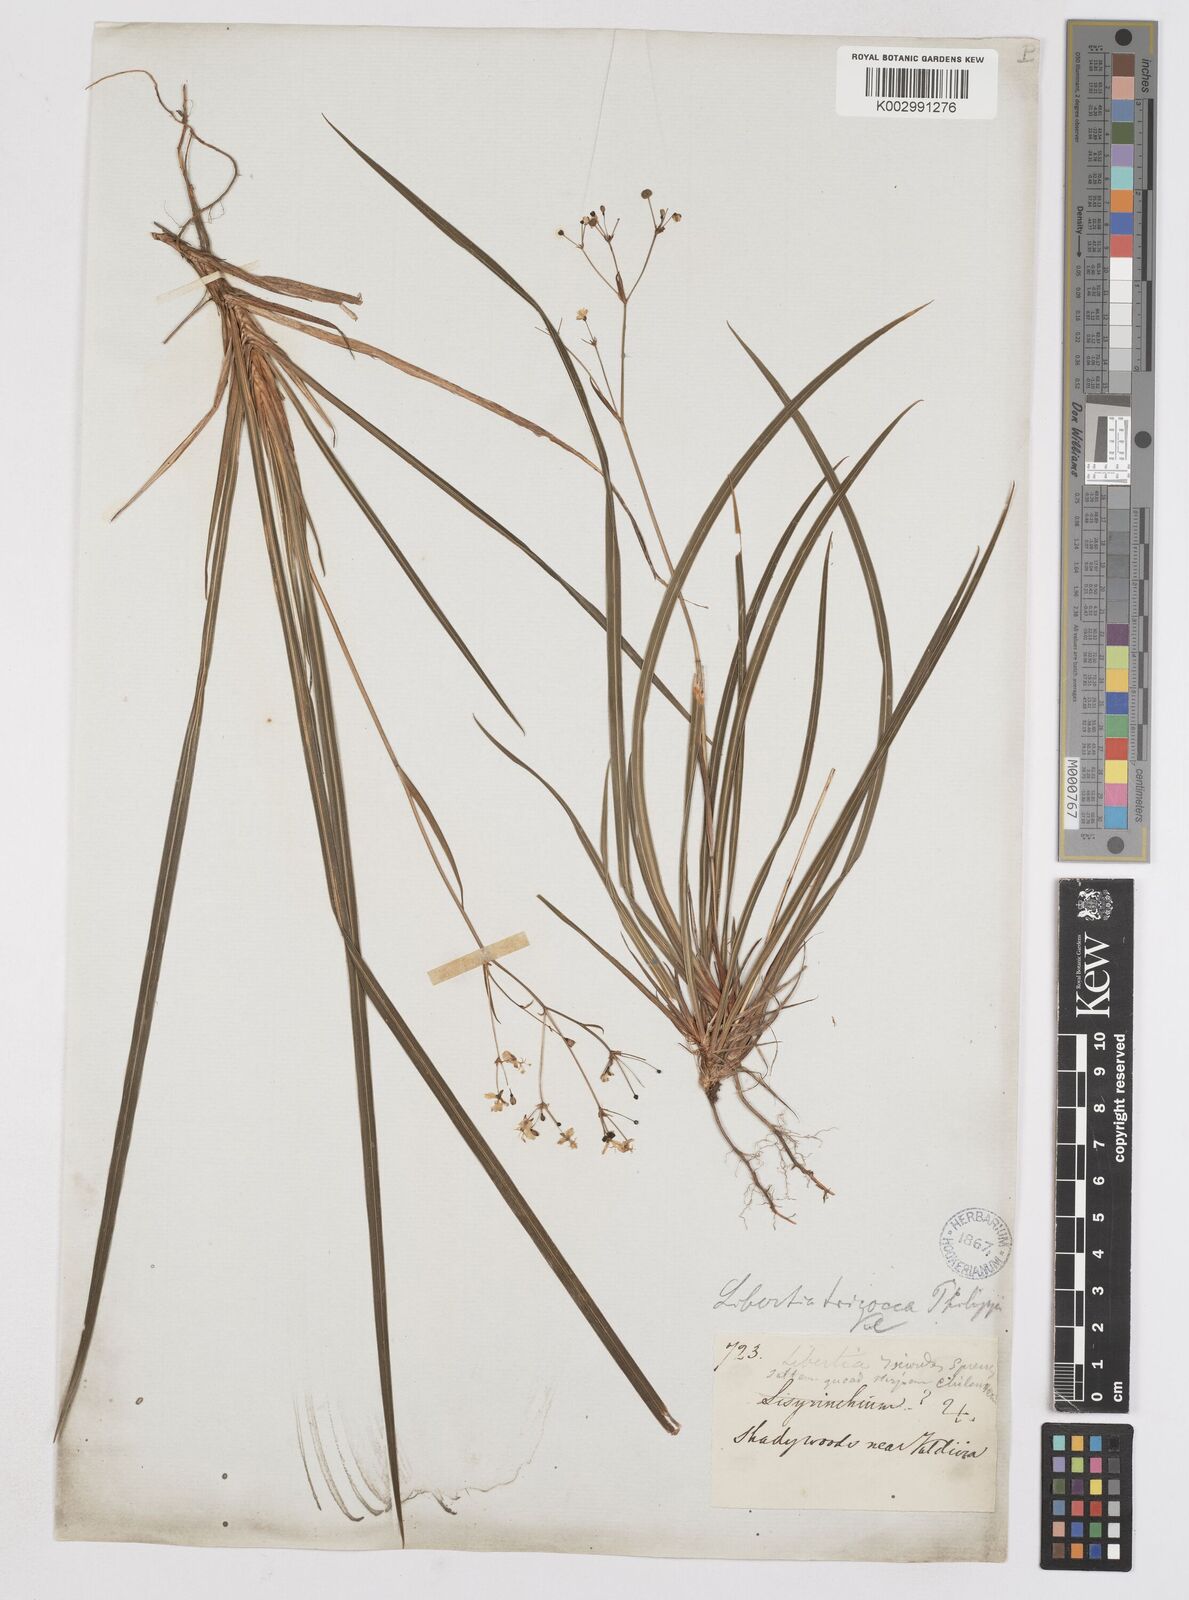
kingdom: Plantae
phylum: Tracheophyta
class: Liliopsida
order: Asparagales
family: Iridaceae
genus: Libertia
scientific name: Libertia tricocca
